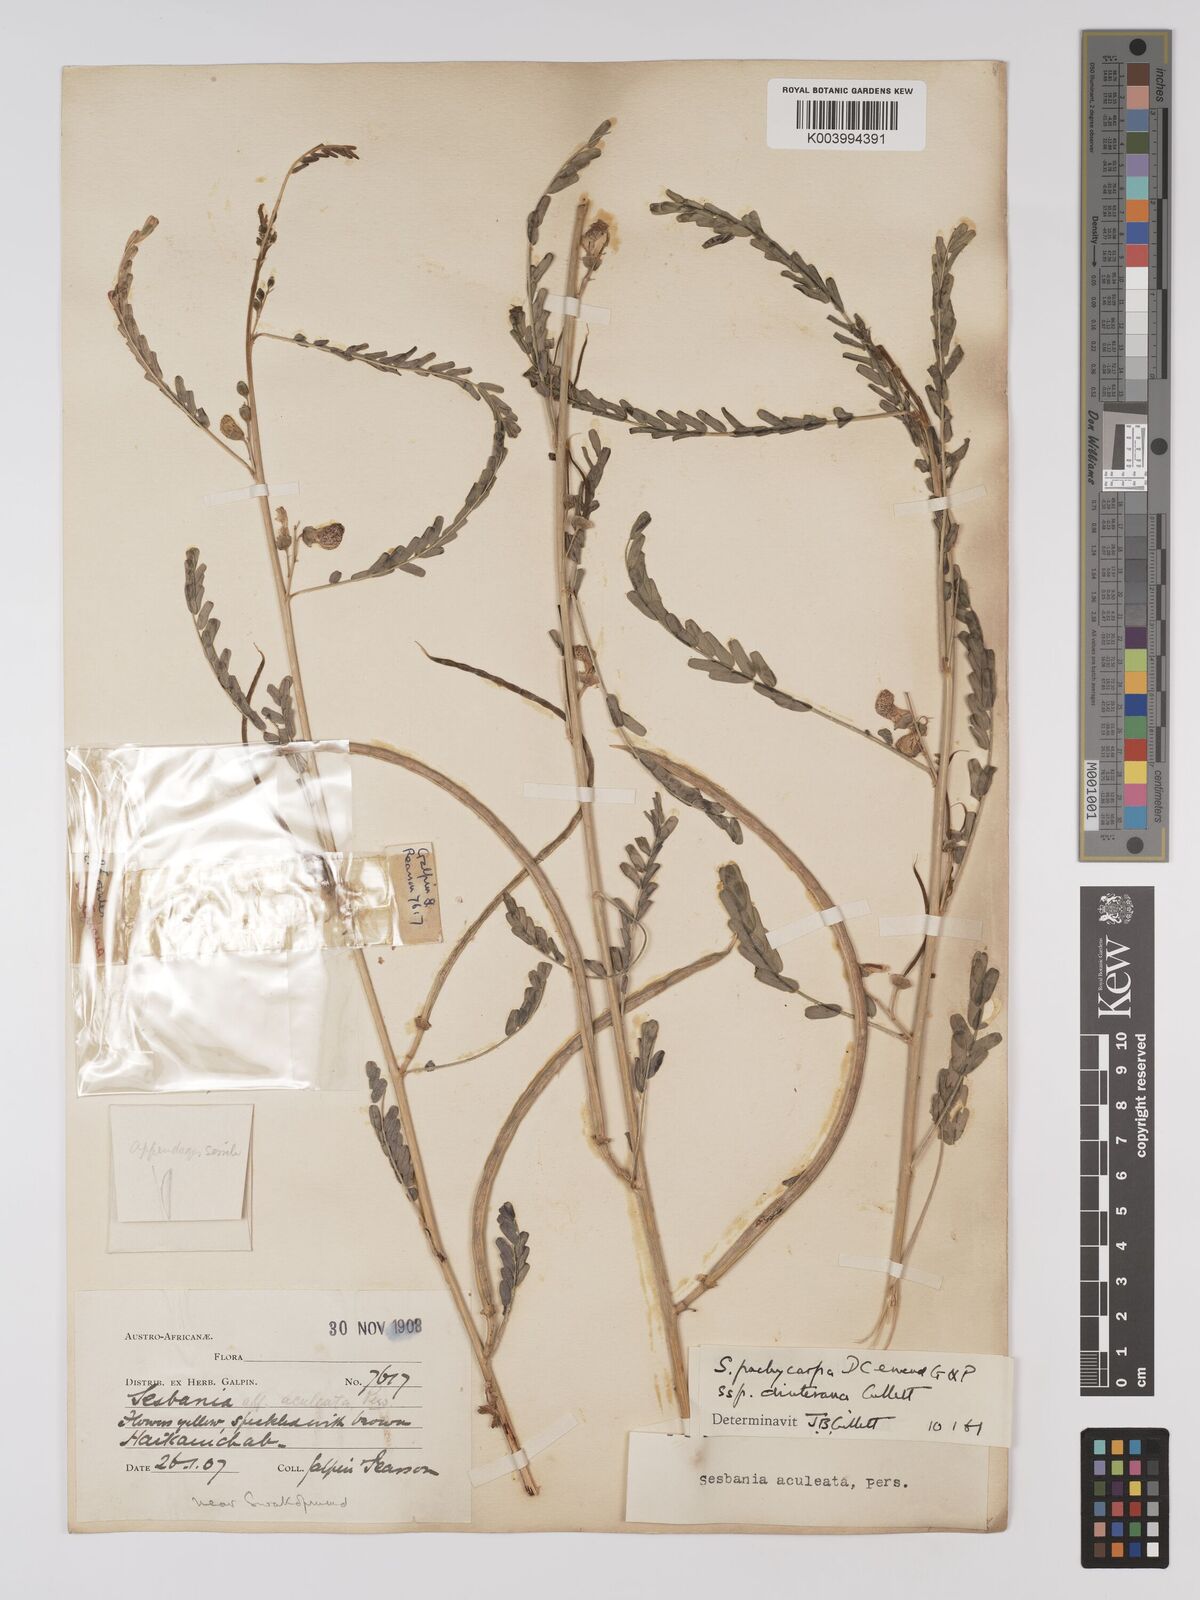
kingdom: Plantae
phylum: Tracheophyta
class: Magnoliopsida
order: Fabales
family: Fabaceae
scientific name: Fabaceae
